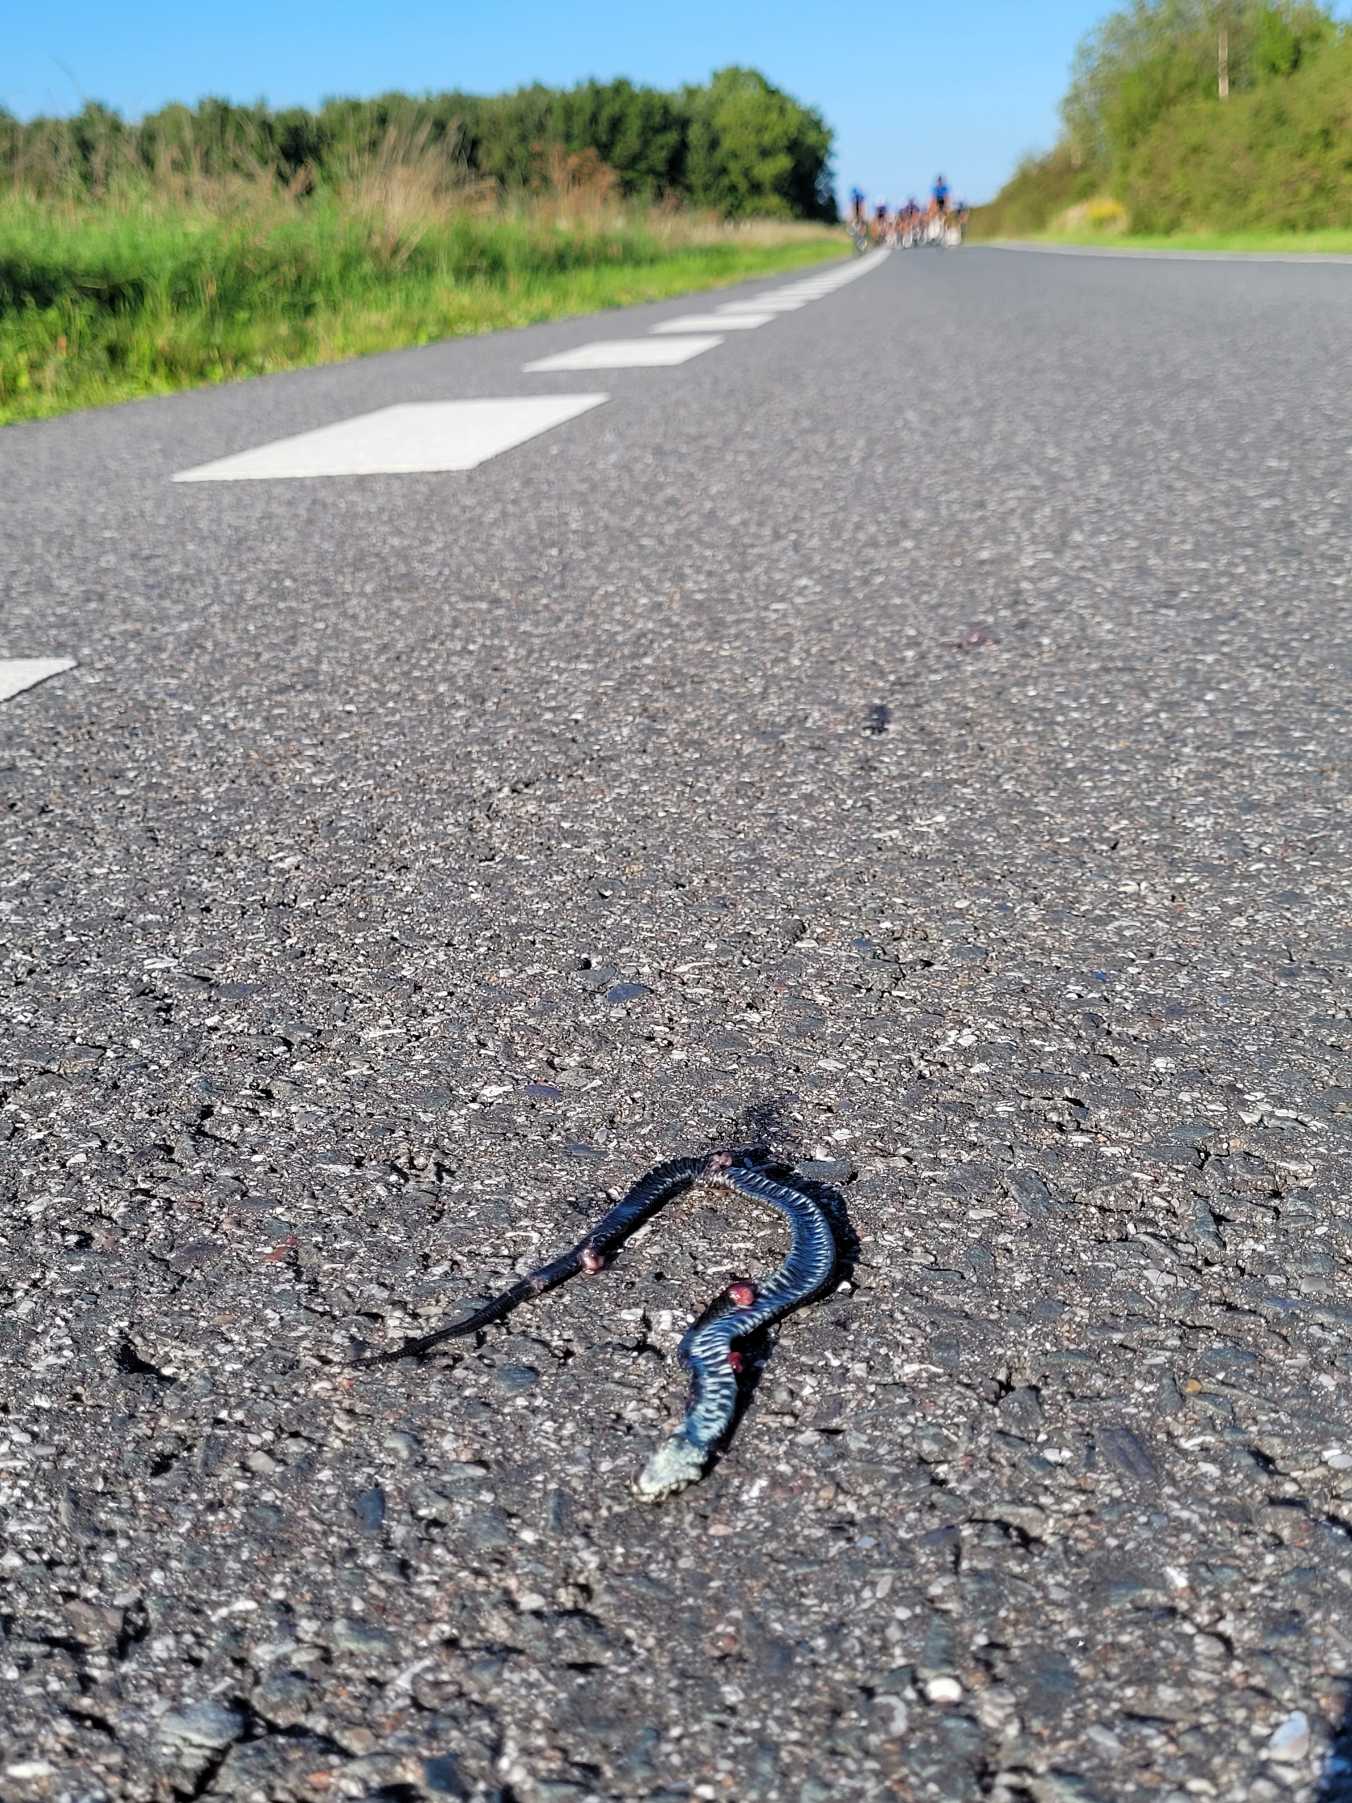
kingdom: Animalia
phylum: Chordata
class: Squamata
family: Colubridae
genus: Natrix
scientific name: Natrix natrix
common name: Snog
